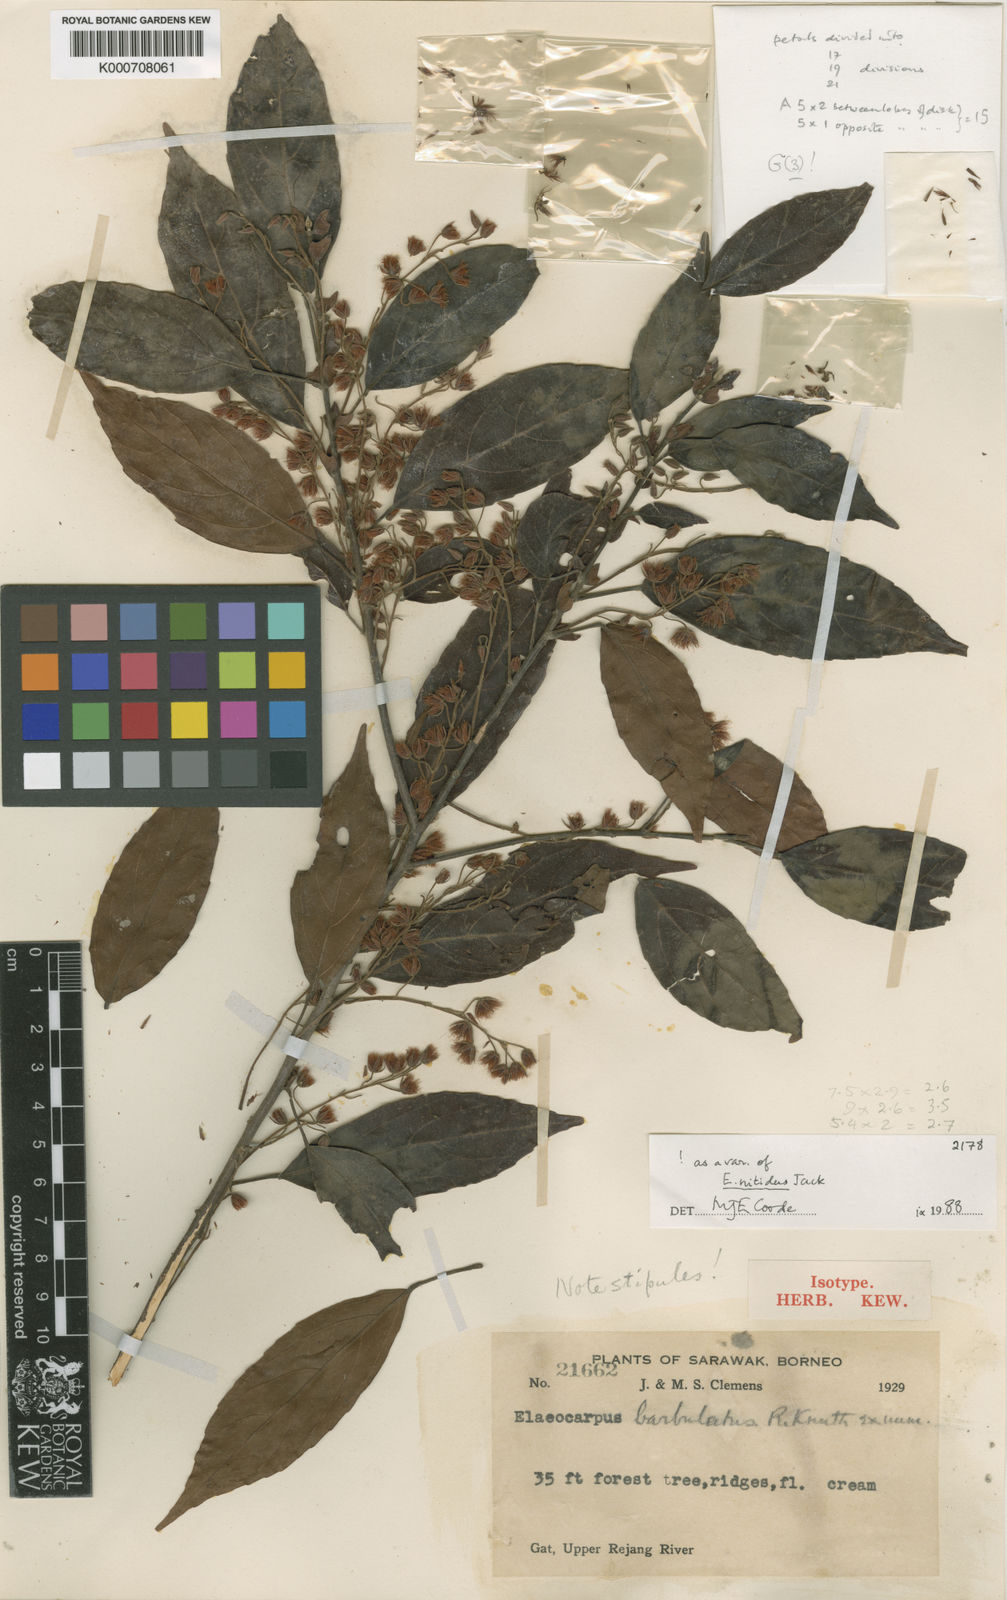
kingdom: Plantae
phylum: Tracheophyta
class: Magnoliopsida
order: Oxalidales
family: Elaeocarpaceae
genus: Elaeocarpus
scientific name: Elaeocarpus barbulatus
